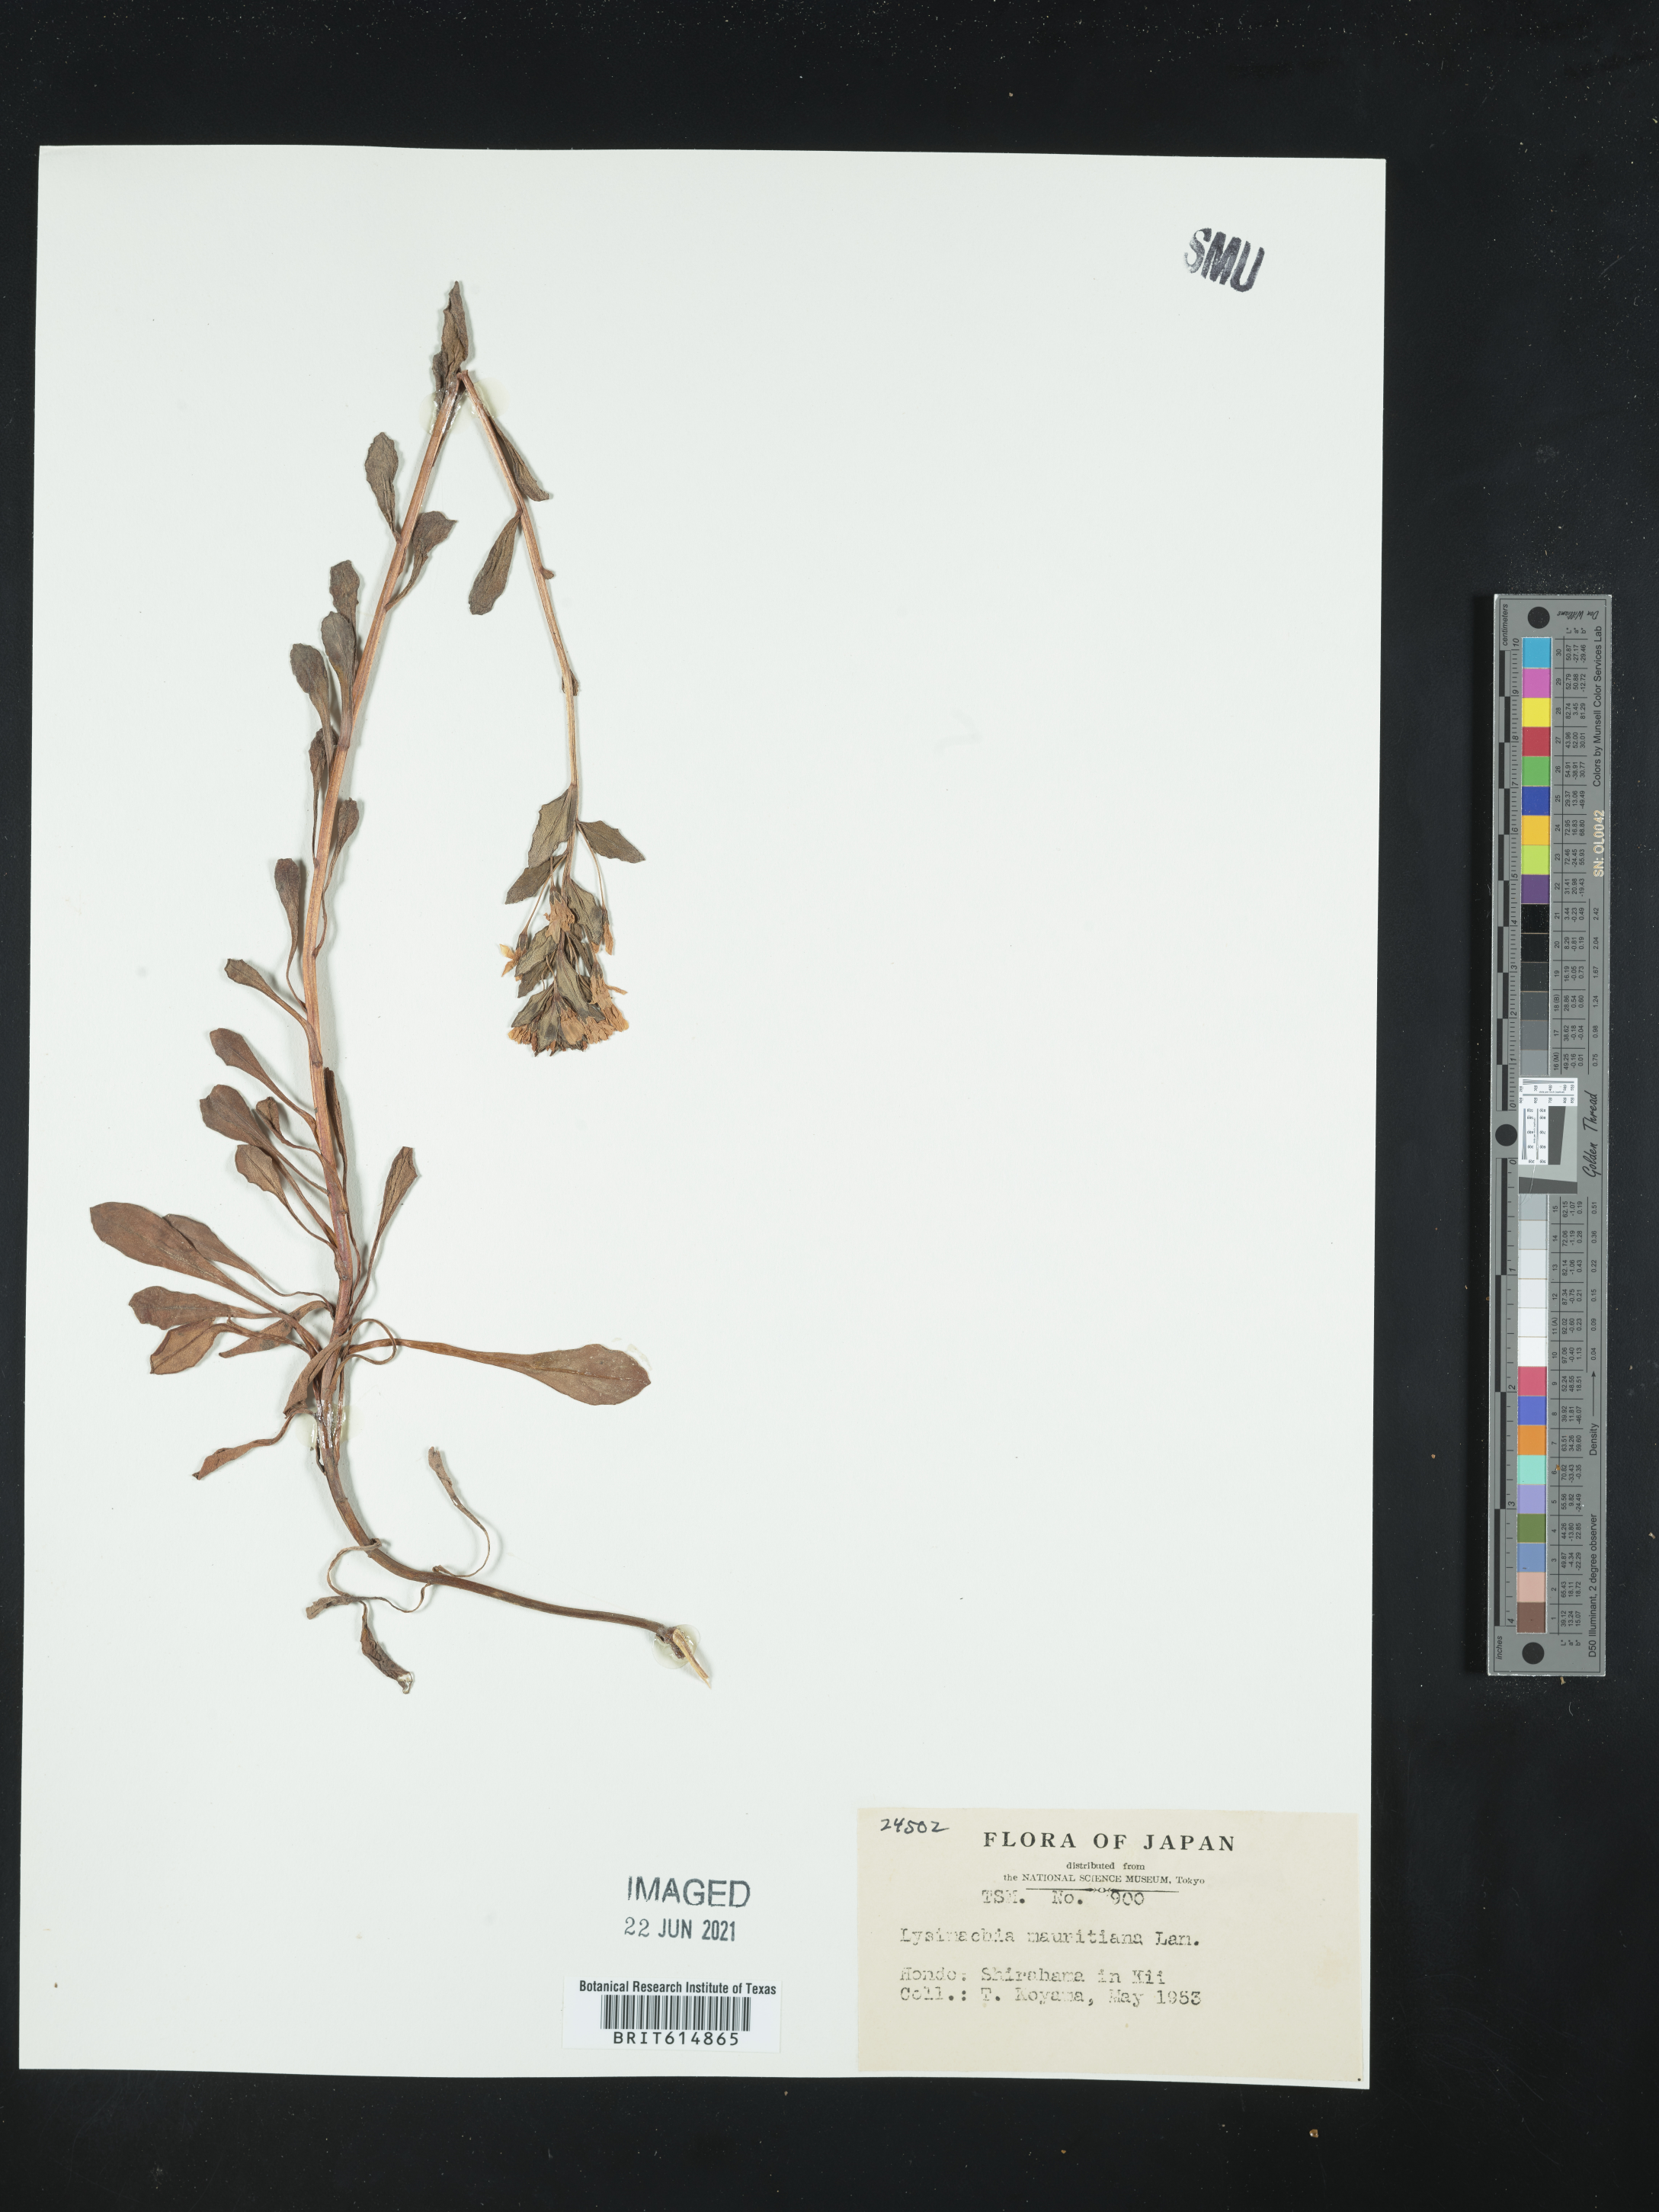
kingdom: Plantae
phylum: Tracheophyta
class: Magnoliopsida
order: Ericales
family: Primulaceae
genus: Lysimachia
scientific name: Lysimachia mauritiana
